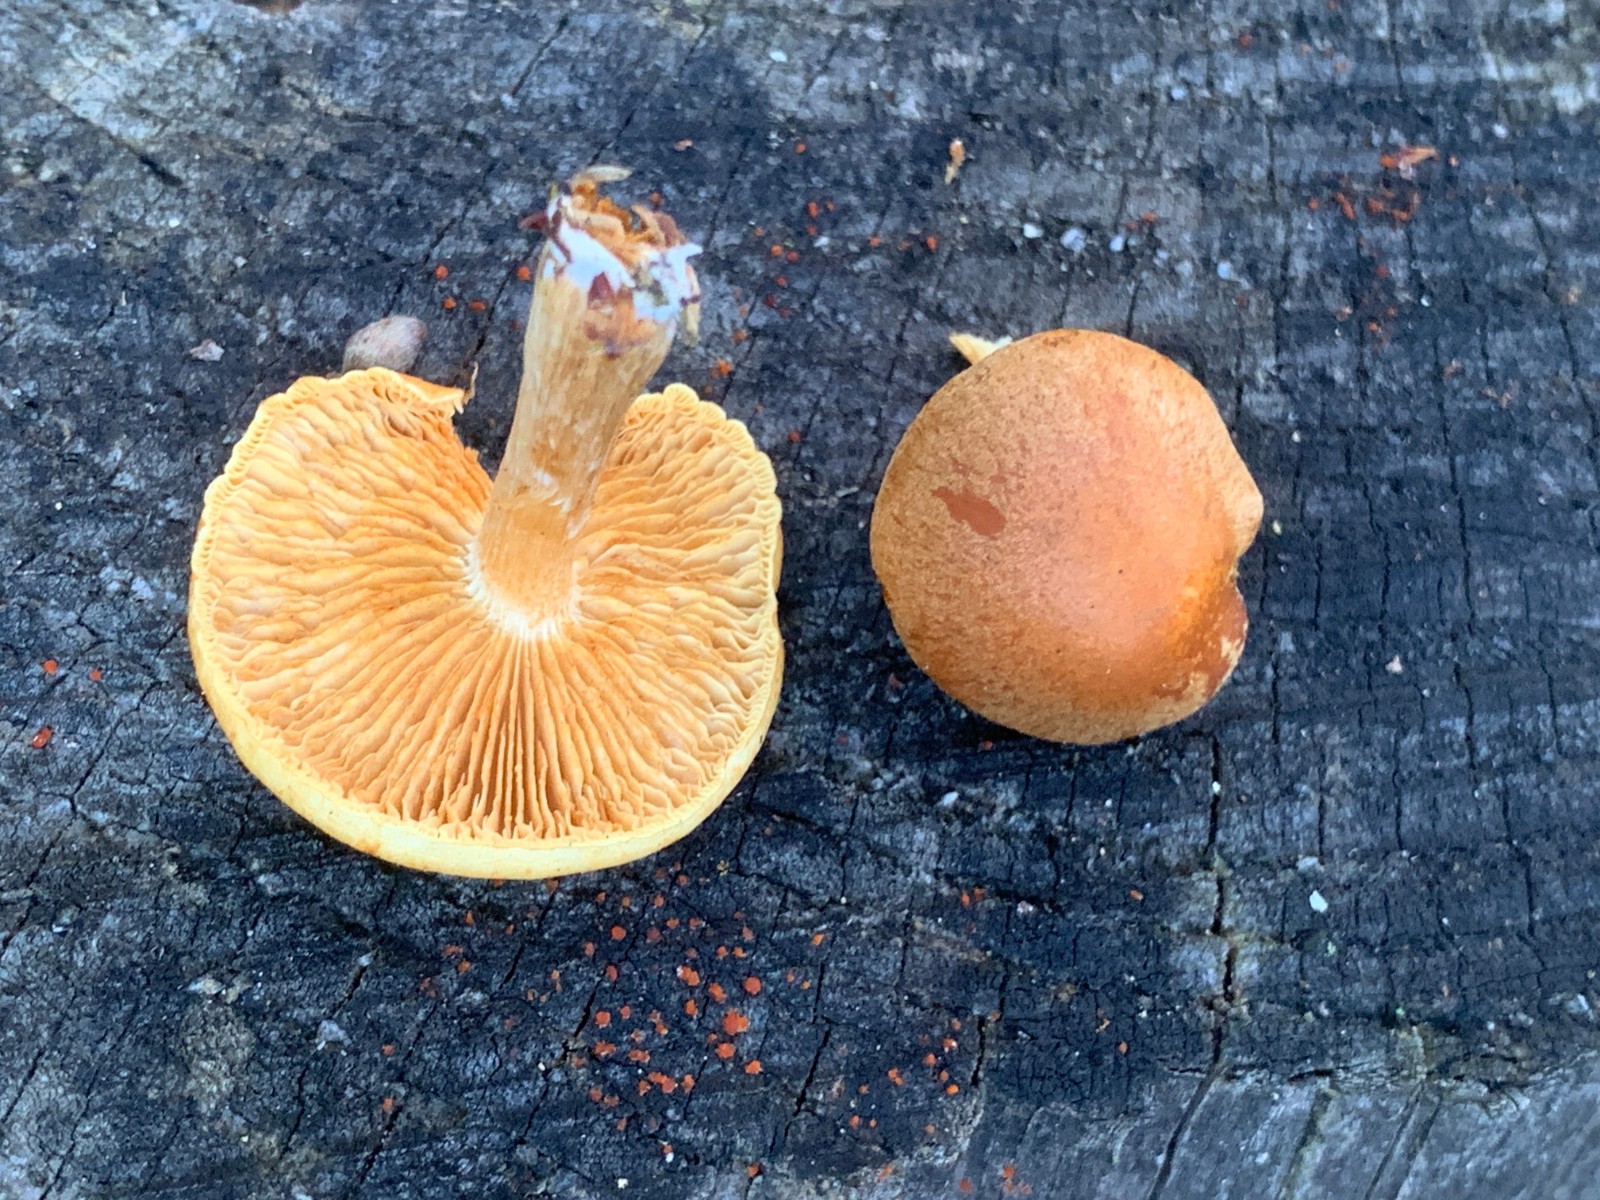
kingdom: Fungi
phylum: Basidiomycota
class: Agaricomycetes
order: Agaricales
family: Hymenogastraceae
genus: Gymnopilus
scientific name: Gymnopilus penetrans
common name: plettet flammehat
